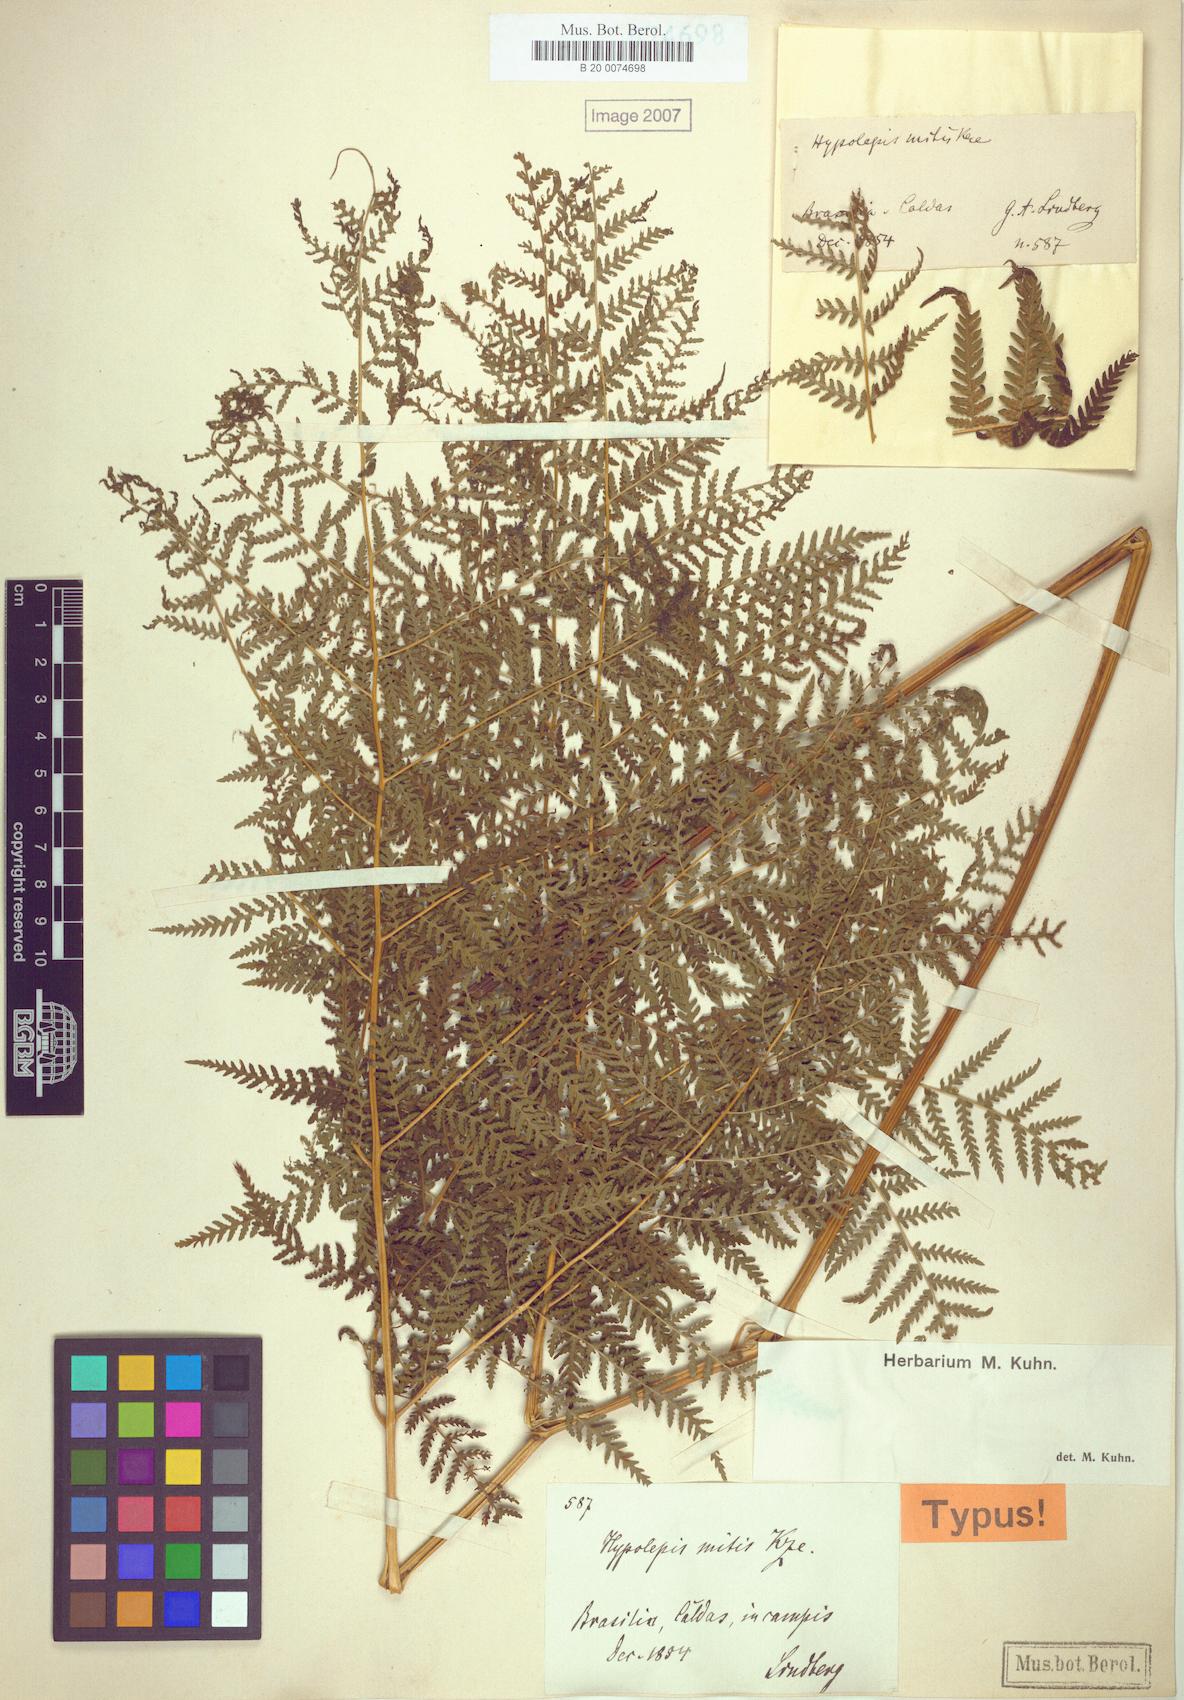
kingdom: Plantae
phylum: Tracheophyta
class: Polypodiopsida
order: Polypodiales
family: Dennstaedtiaceae
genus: Hypolepis
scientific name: Hypolepis mitis
